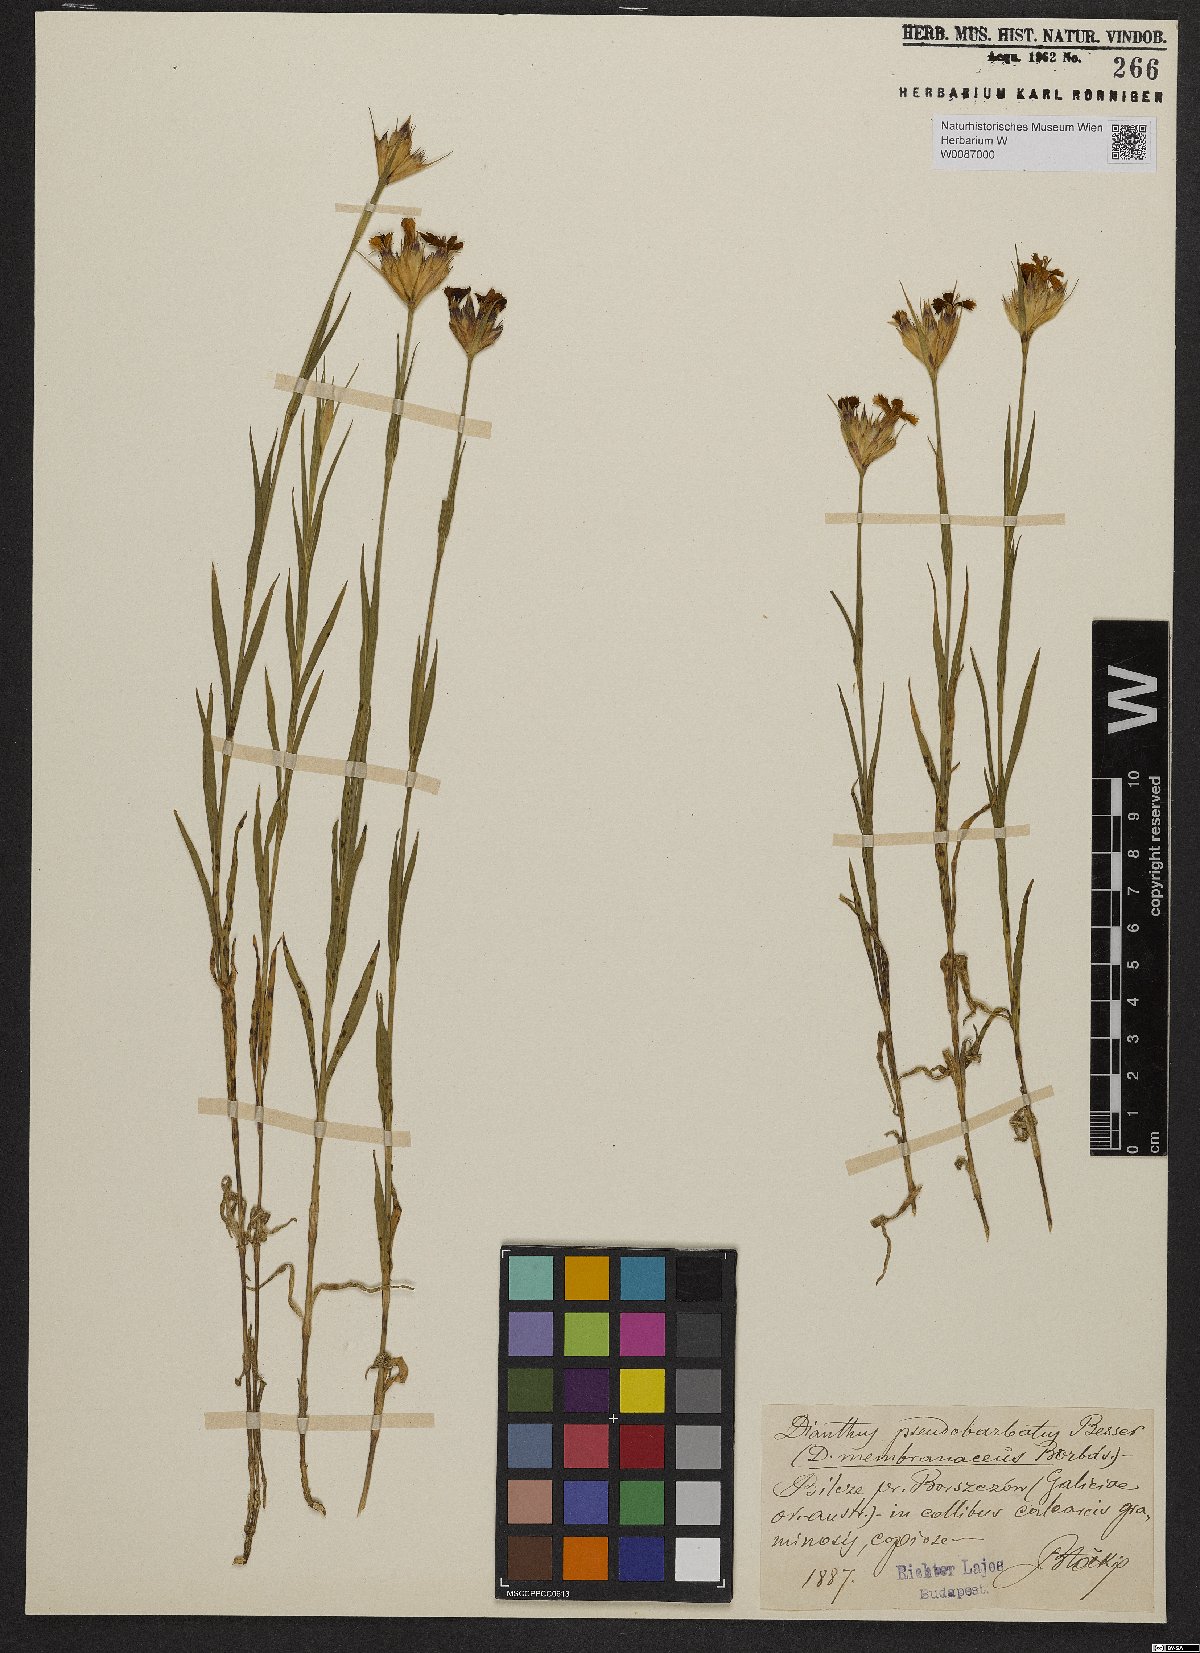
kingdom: Plantae
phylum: Tracheophyta
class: Magnoliopsida
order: Caryophyllales
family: Caryophyllaceae
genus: Dianthus
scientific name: Dianthus trifasciculatus
